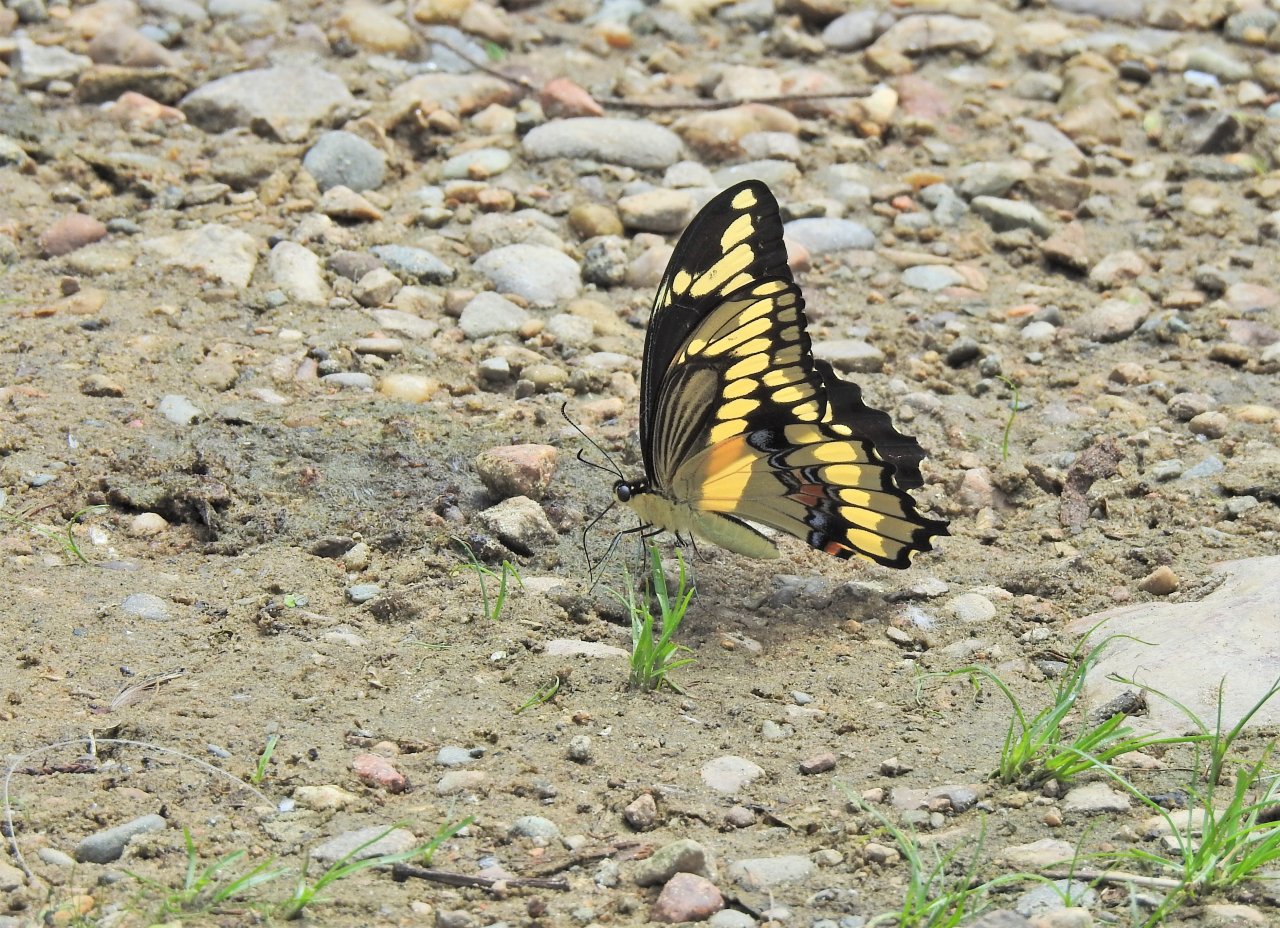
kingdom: Animalia
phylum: Arthropoda
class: Insecta
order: Lepidoptera
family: Papilionidae
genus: Papilio
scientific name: Papilio cresphontes
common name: Eastern Giant Swallowtail
